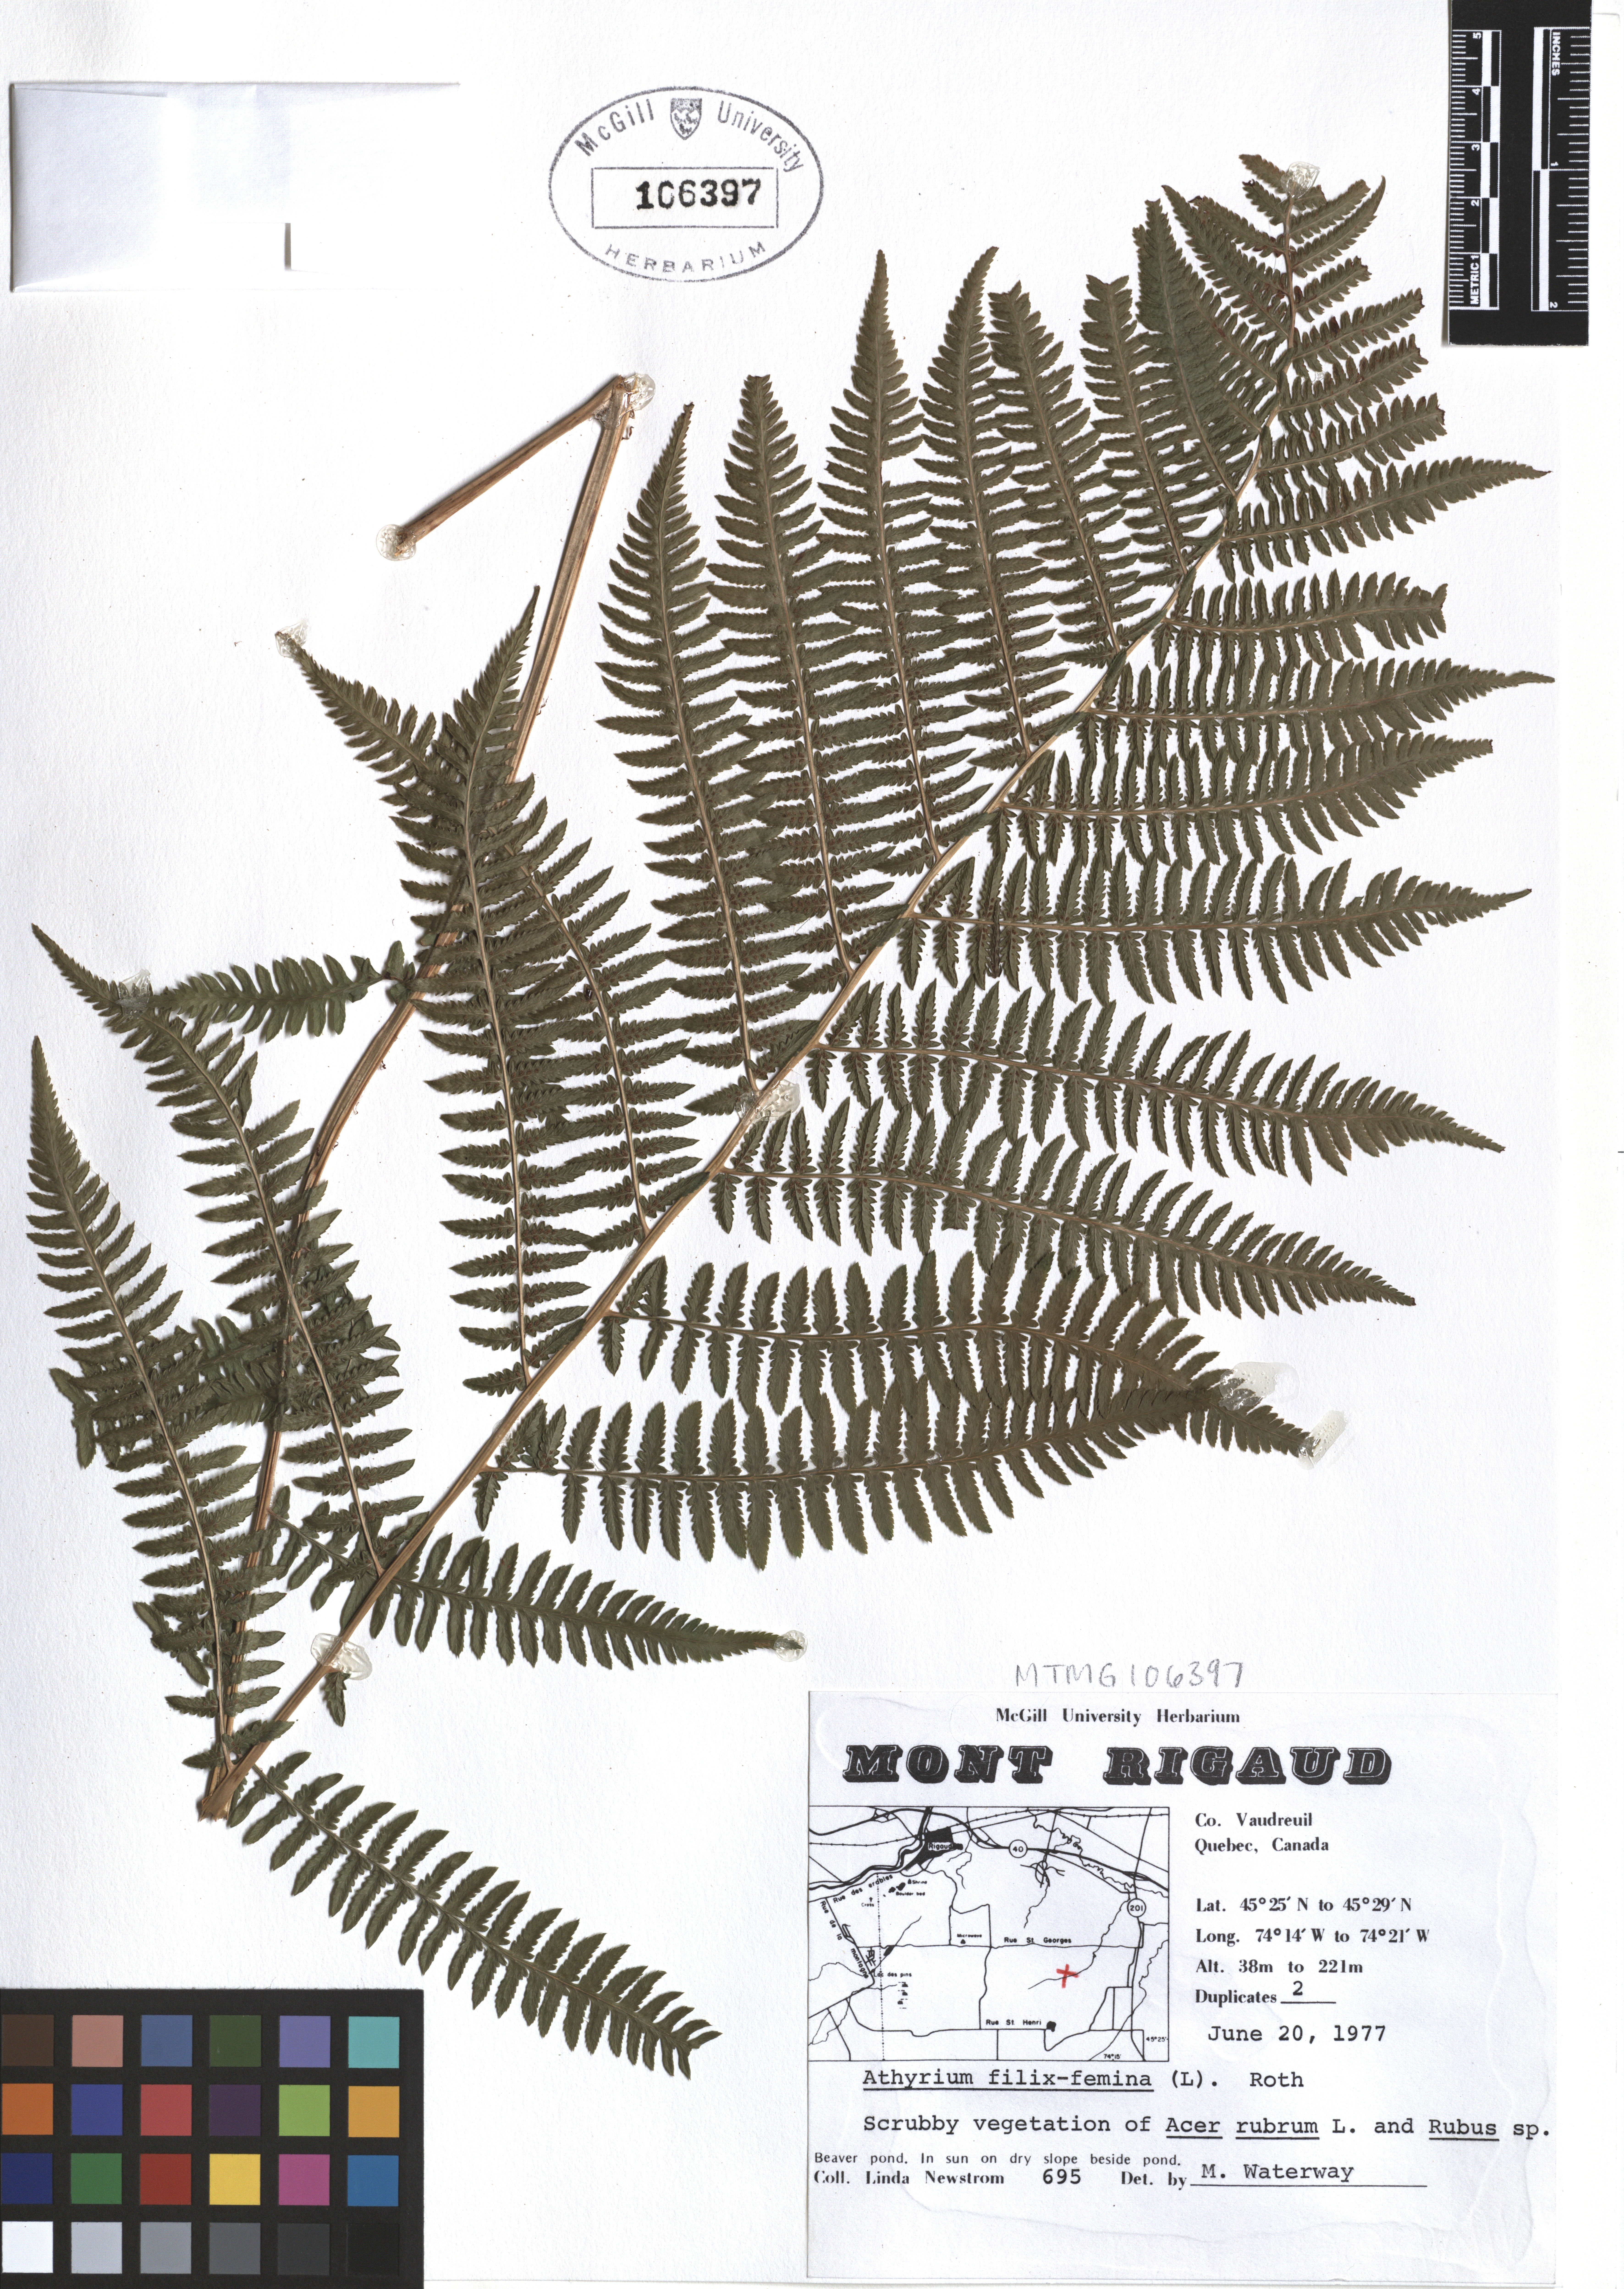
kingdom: Plantae
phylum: Tracheophyta
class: Polypodiopsida
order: Polypodiales
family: Athyriaceae
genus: Athyrium
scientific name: Athyrium filix-femina
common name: Lady fern
